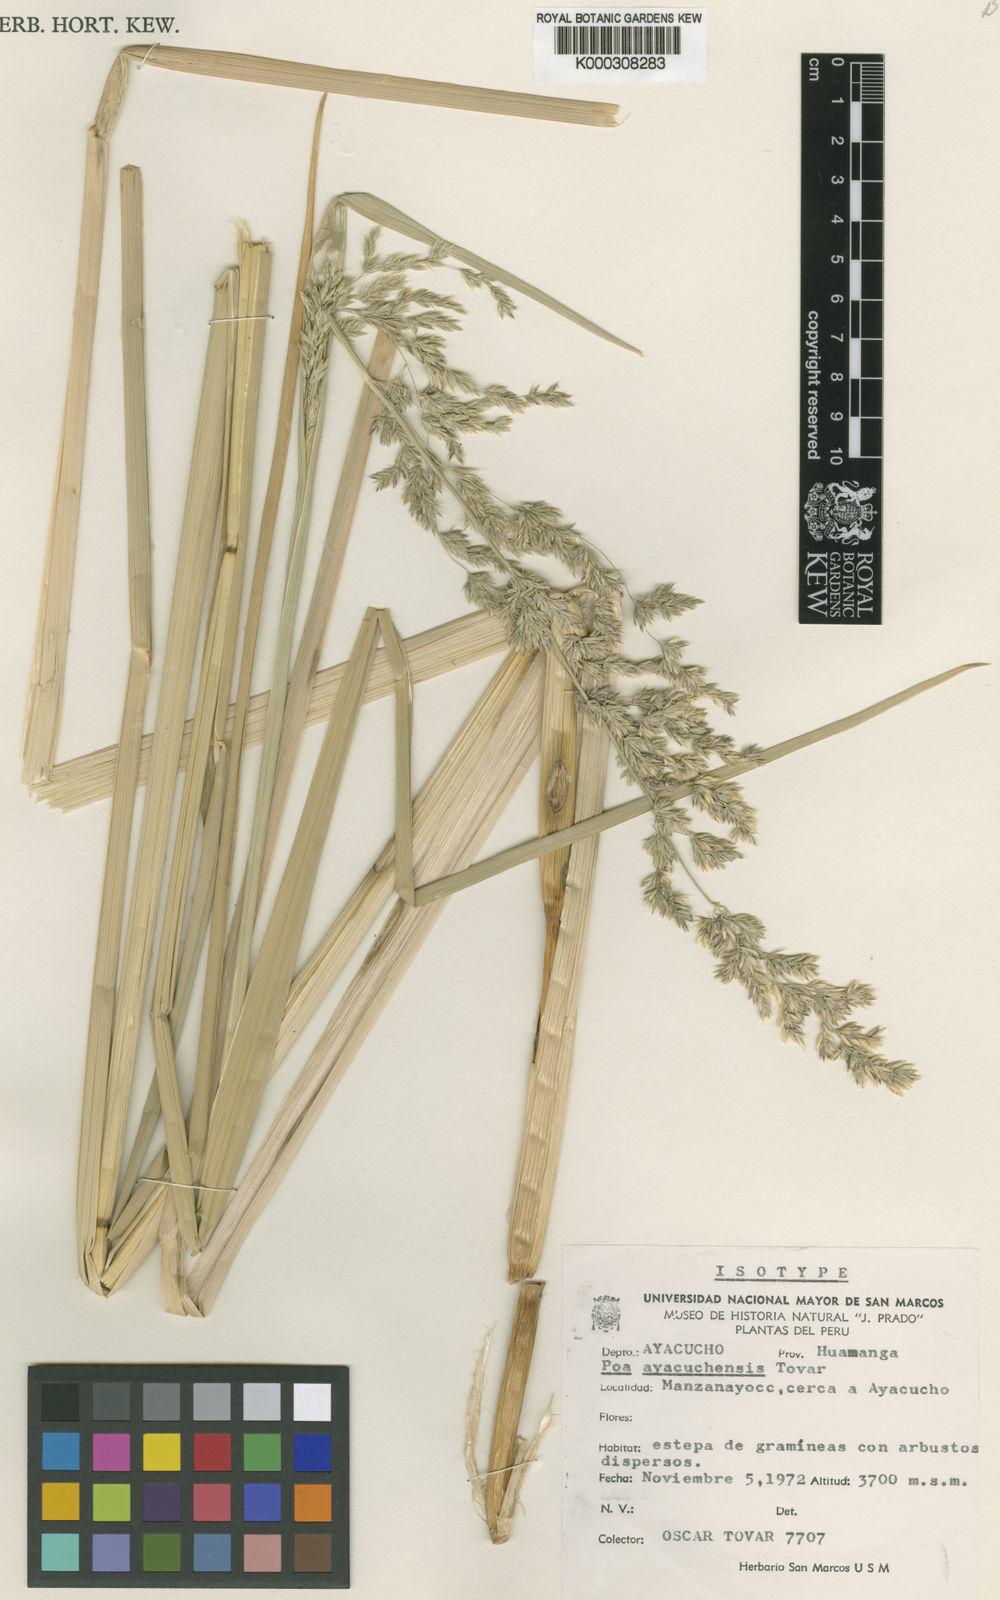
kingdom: Plantae
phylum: Tracheophyta
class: Liliopsida
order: Poales
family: Poaceae
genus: Poa
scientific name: Poa ayacuchensis
